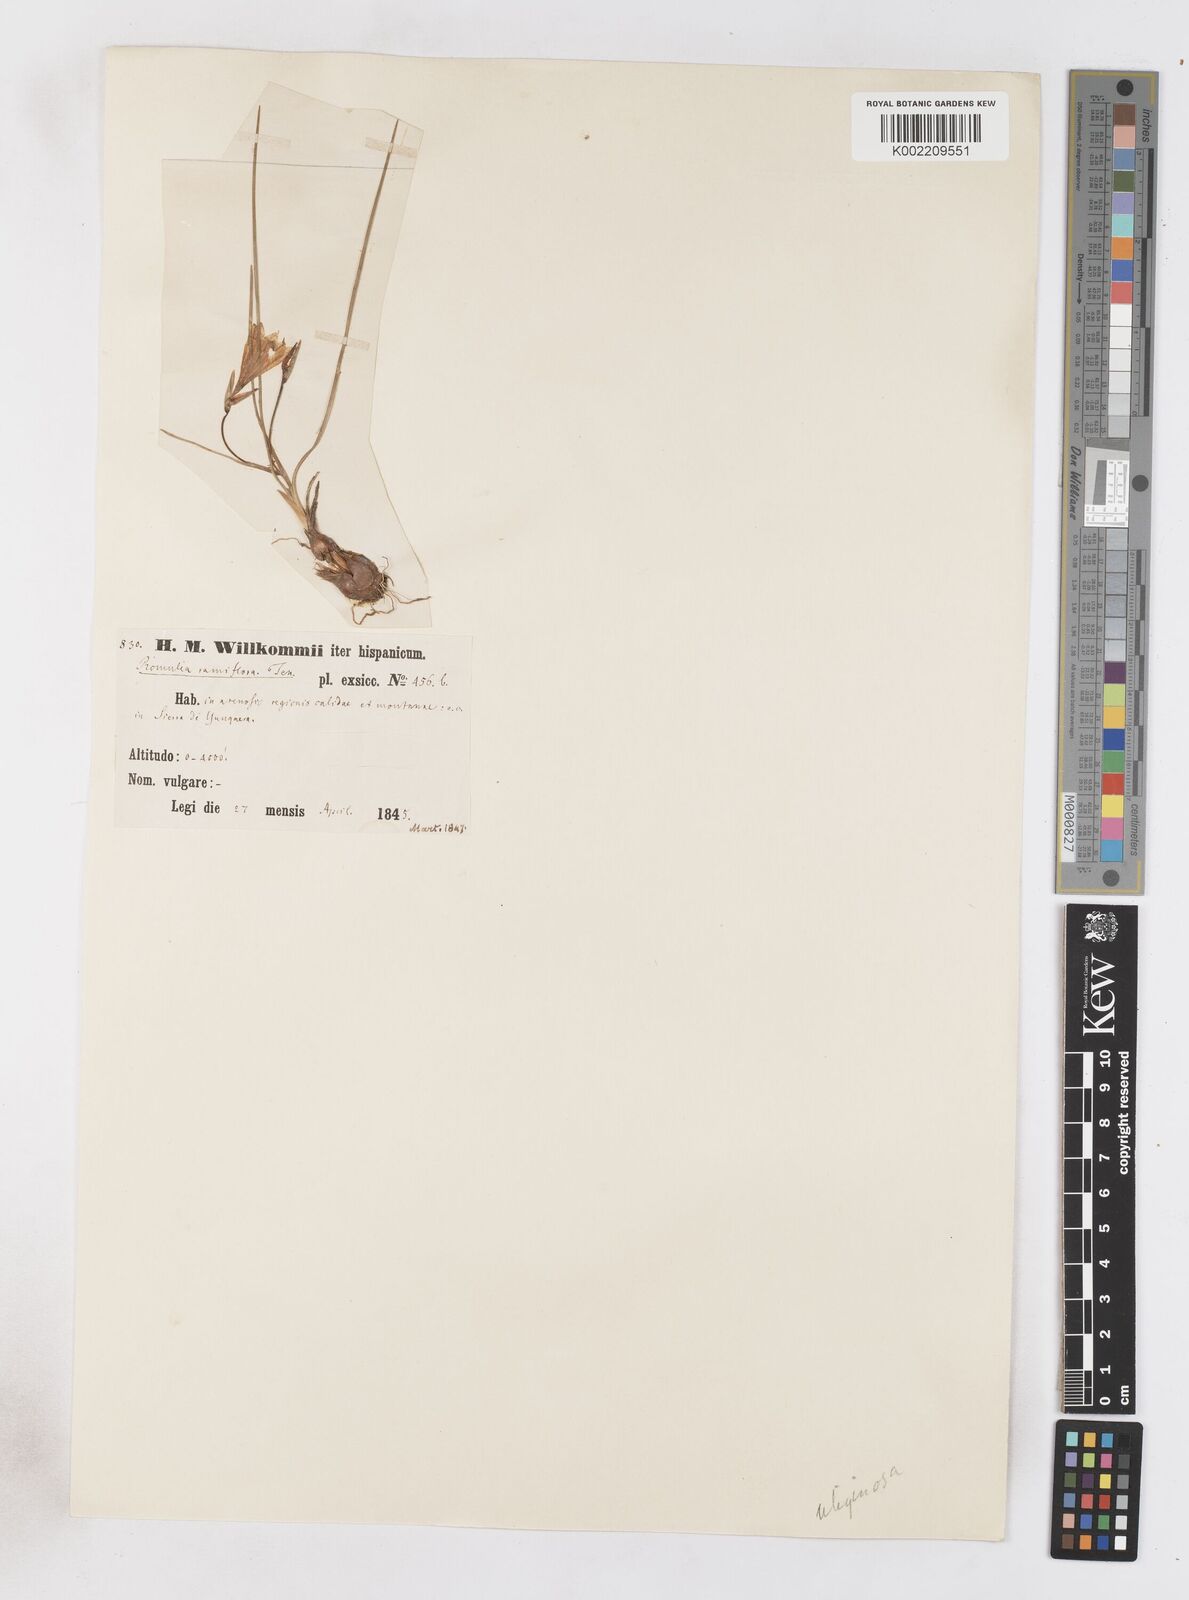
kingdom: Plantae
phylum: Tracheophyta
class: Liliopsida
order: Asparagales
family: Iridaceae
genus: Romulea
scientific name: Romulea bulbocodium
